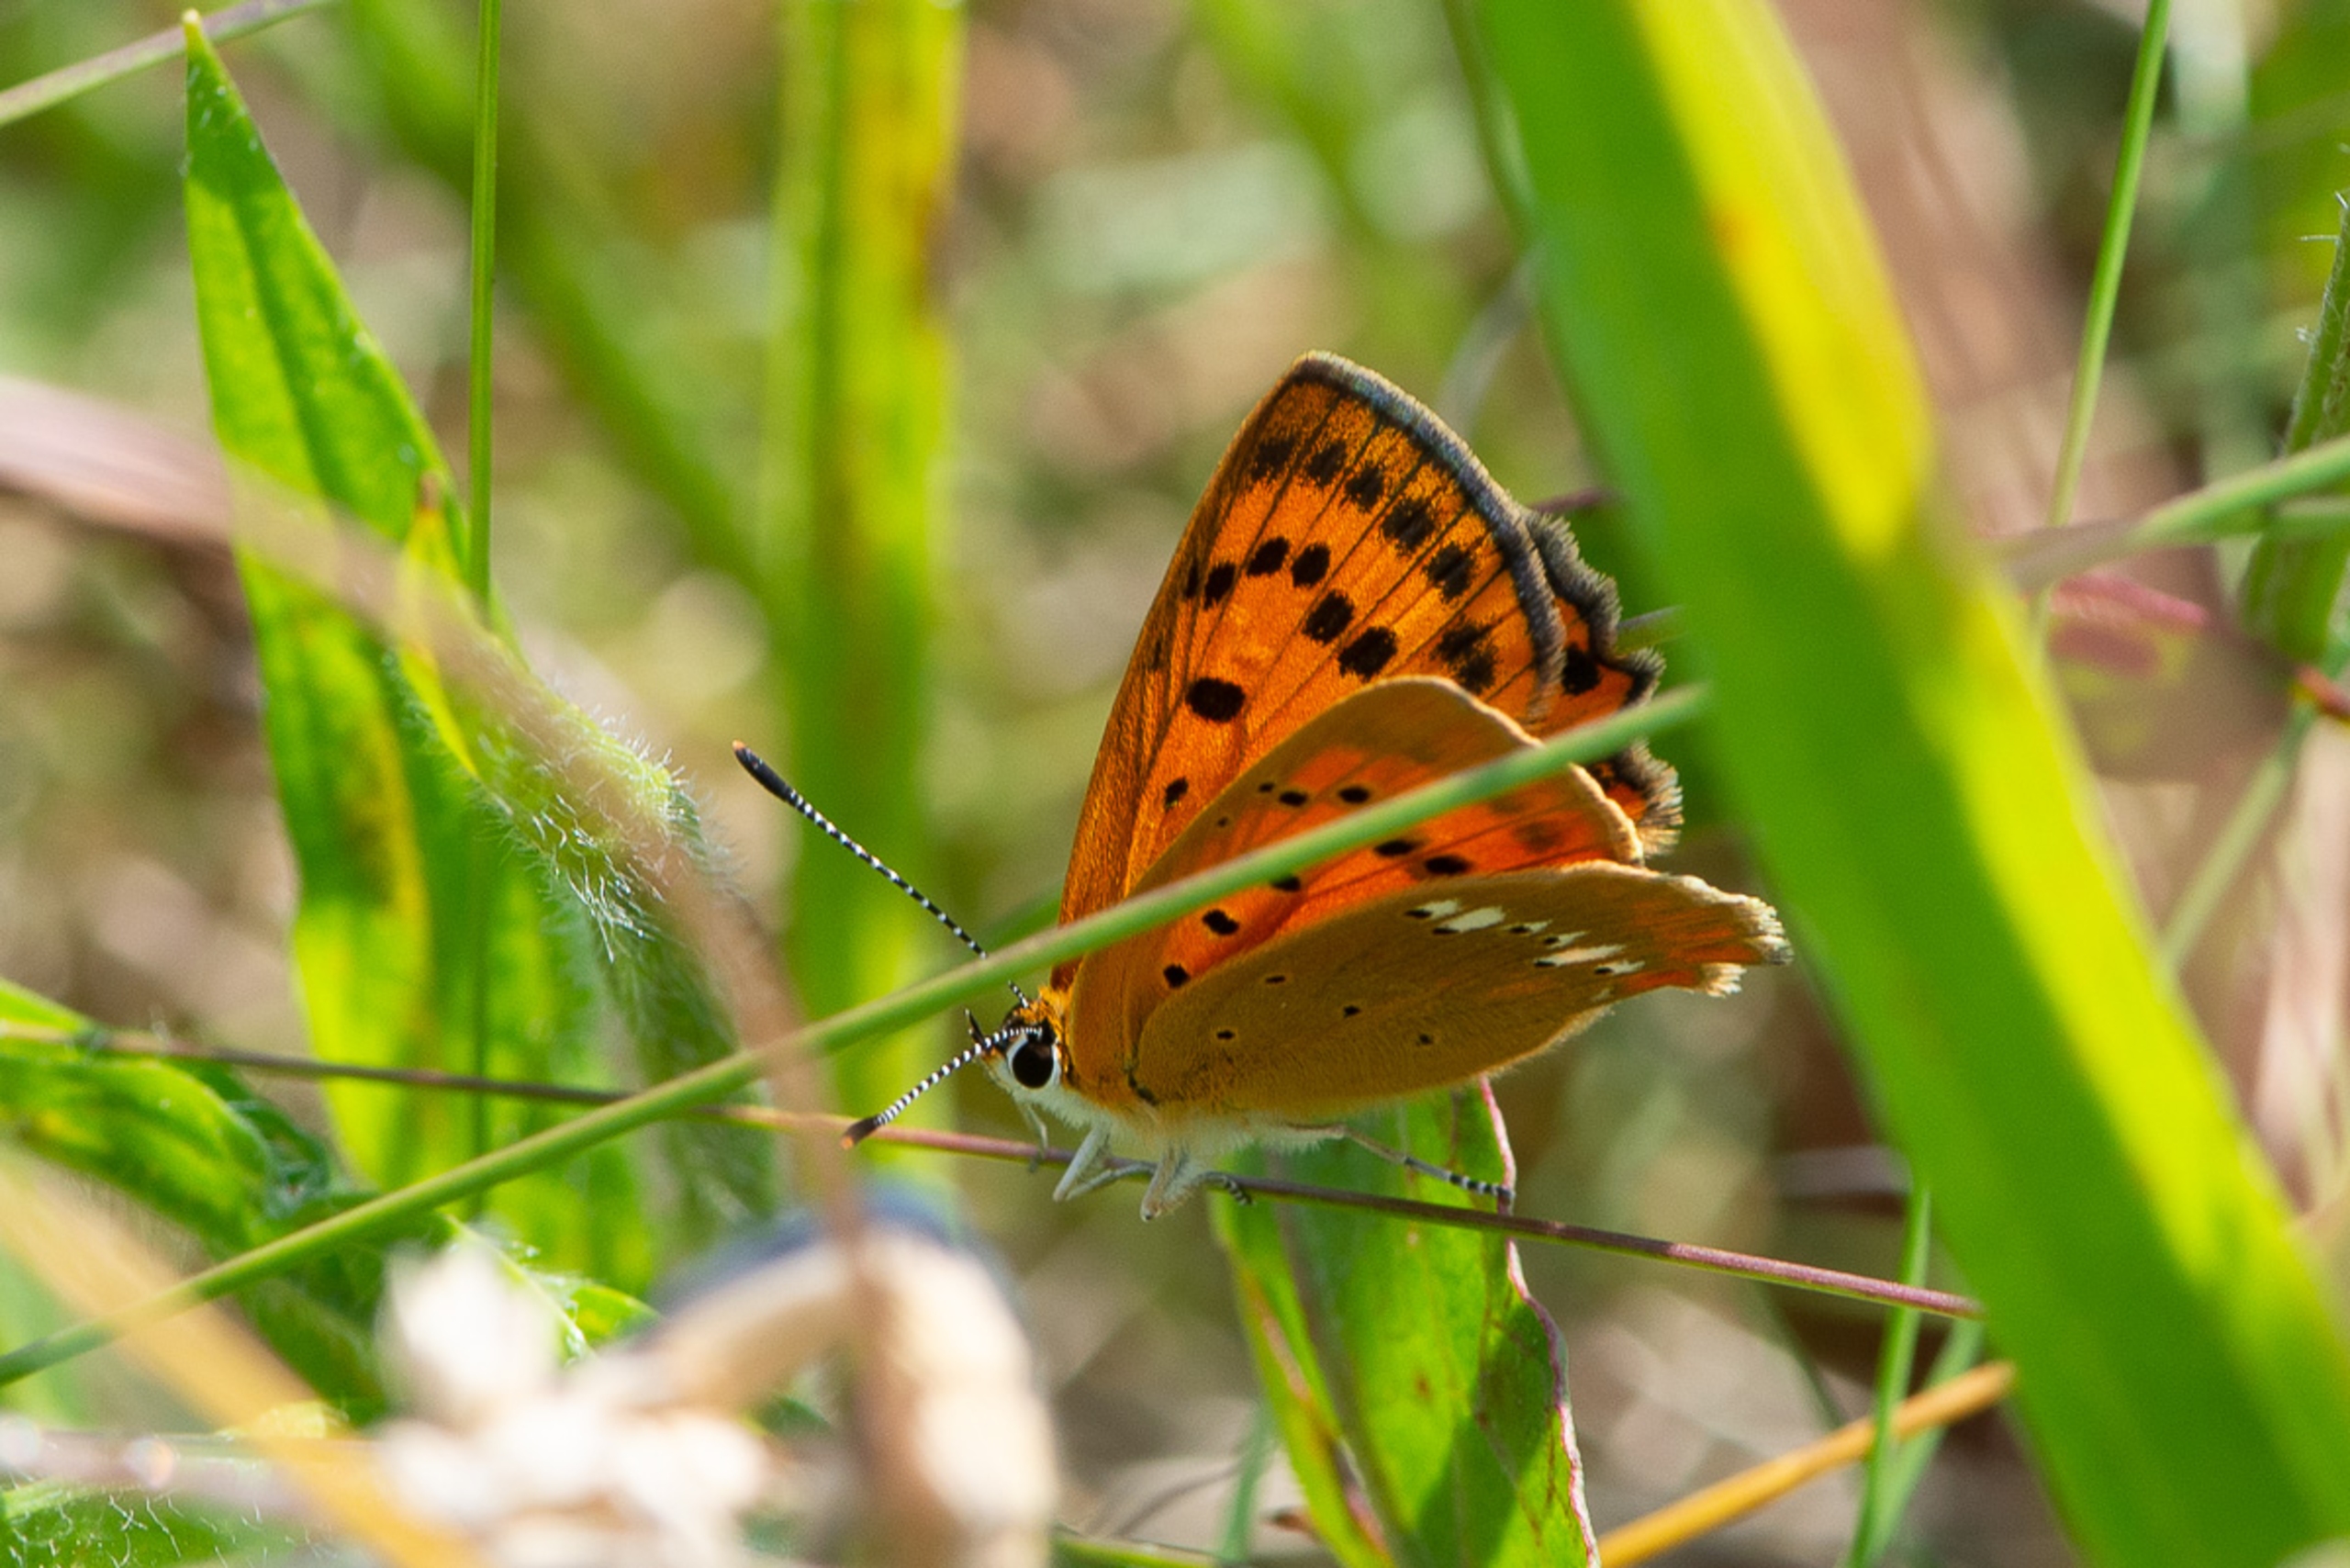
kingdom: Animalia
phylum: Arthropoda
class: Insecta
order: Lepidoptera
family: Lycaenidae
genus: Lycaena
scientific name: Lycaena virgaureae
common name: Dukatsommerfugl
